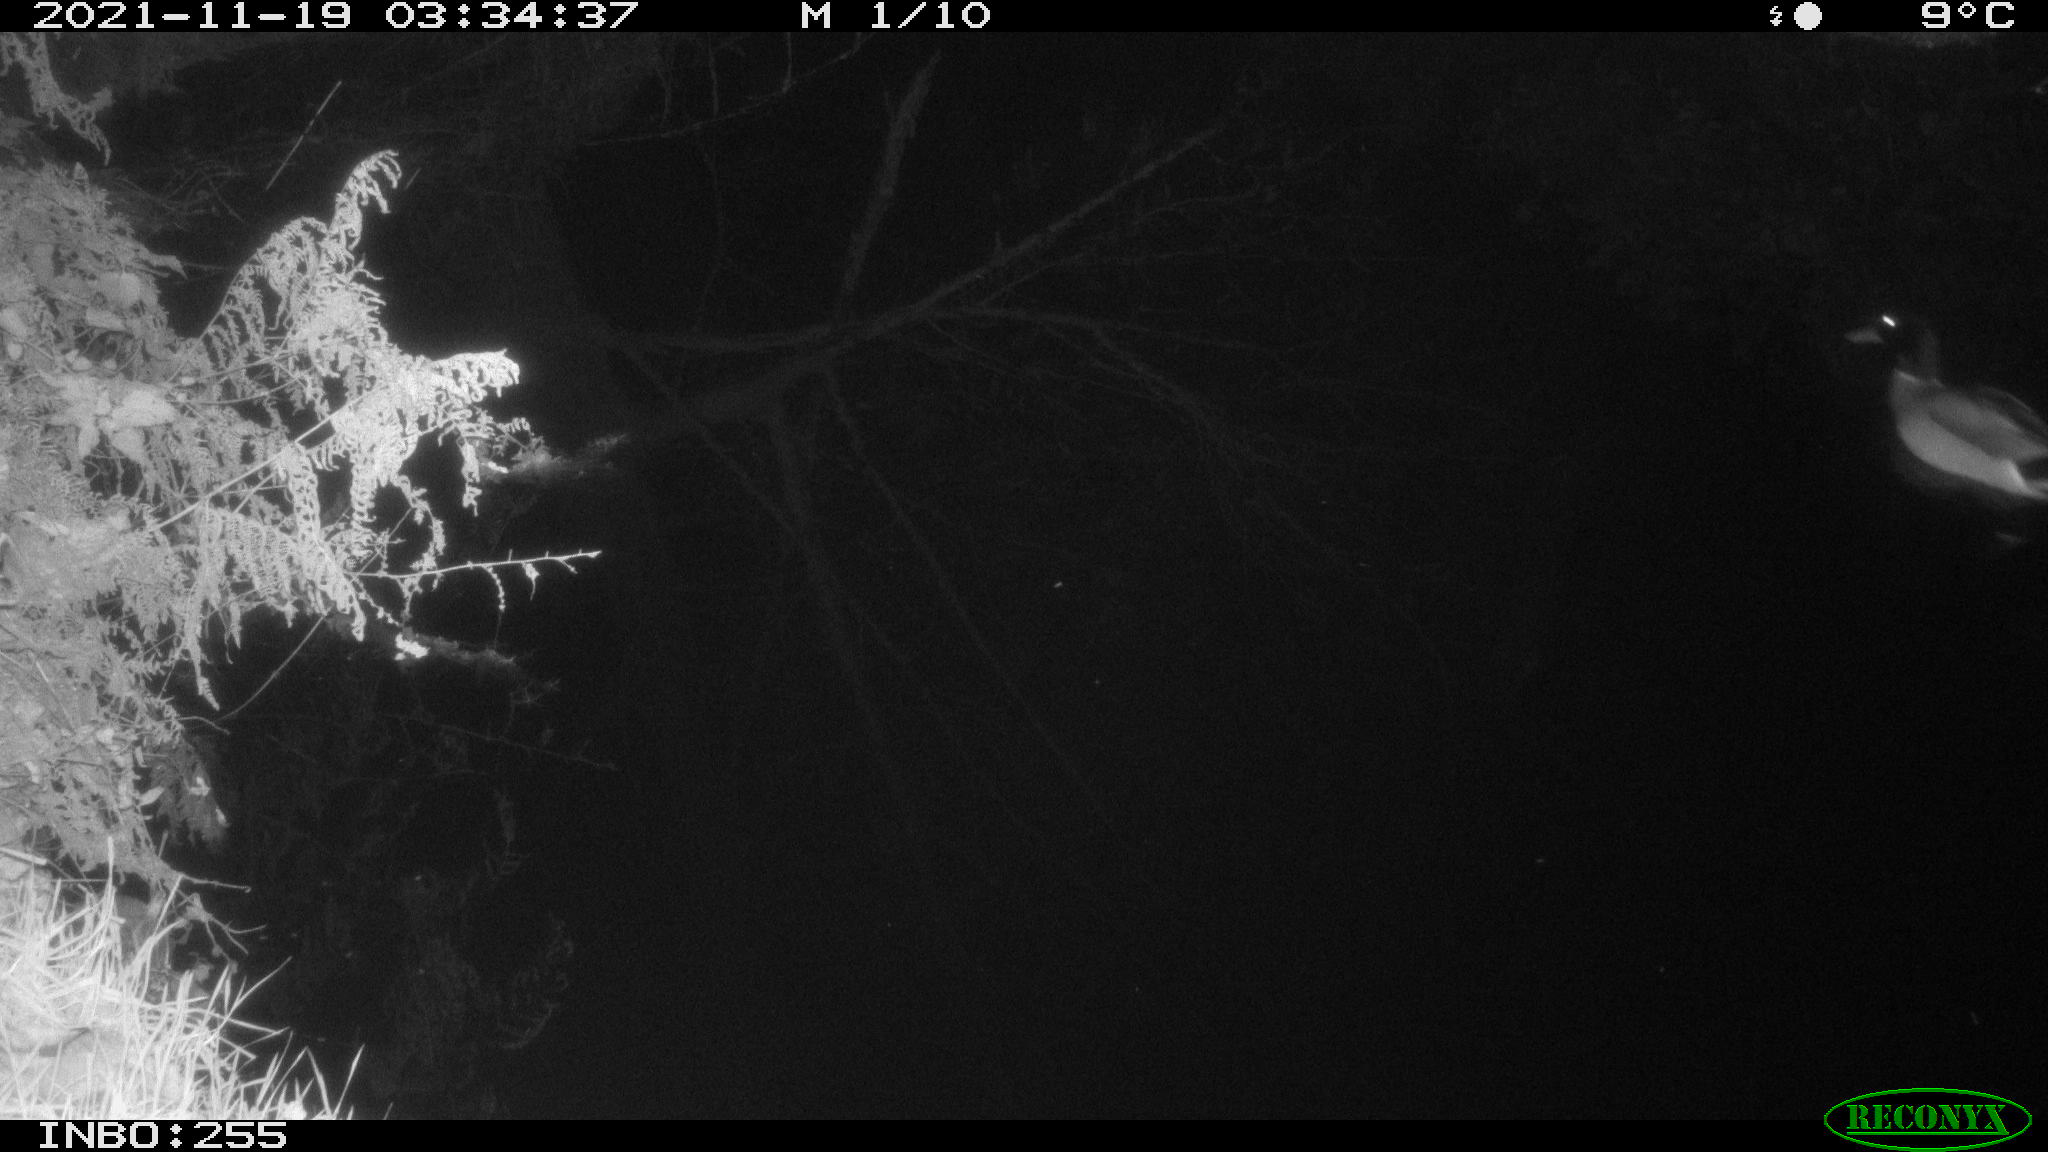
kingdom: Animalia
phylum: Chordata
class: Aves
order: Anseriformes
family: Anatidae
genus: Anas
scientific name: Anas platyrhynchos
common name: Mallard
